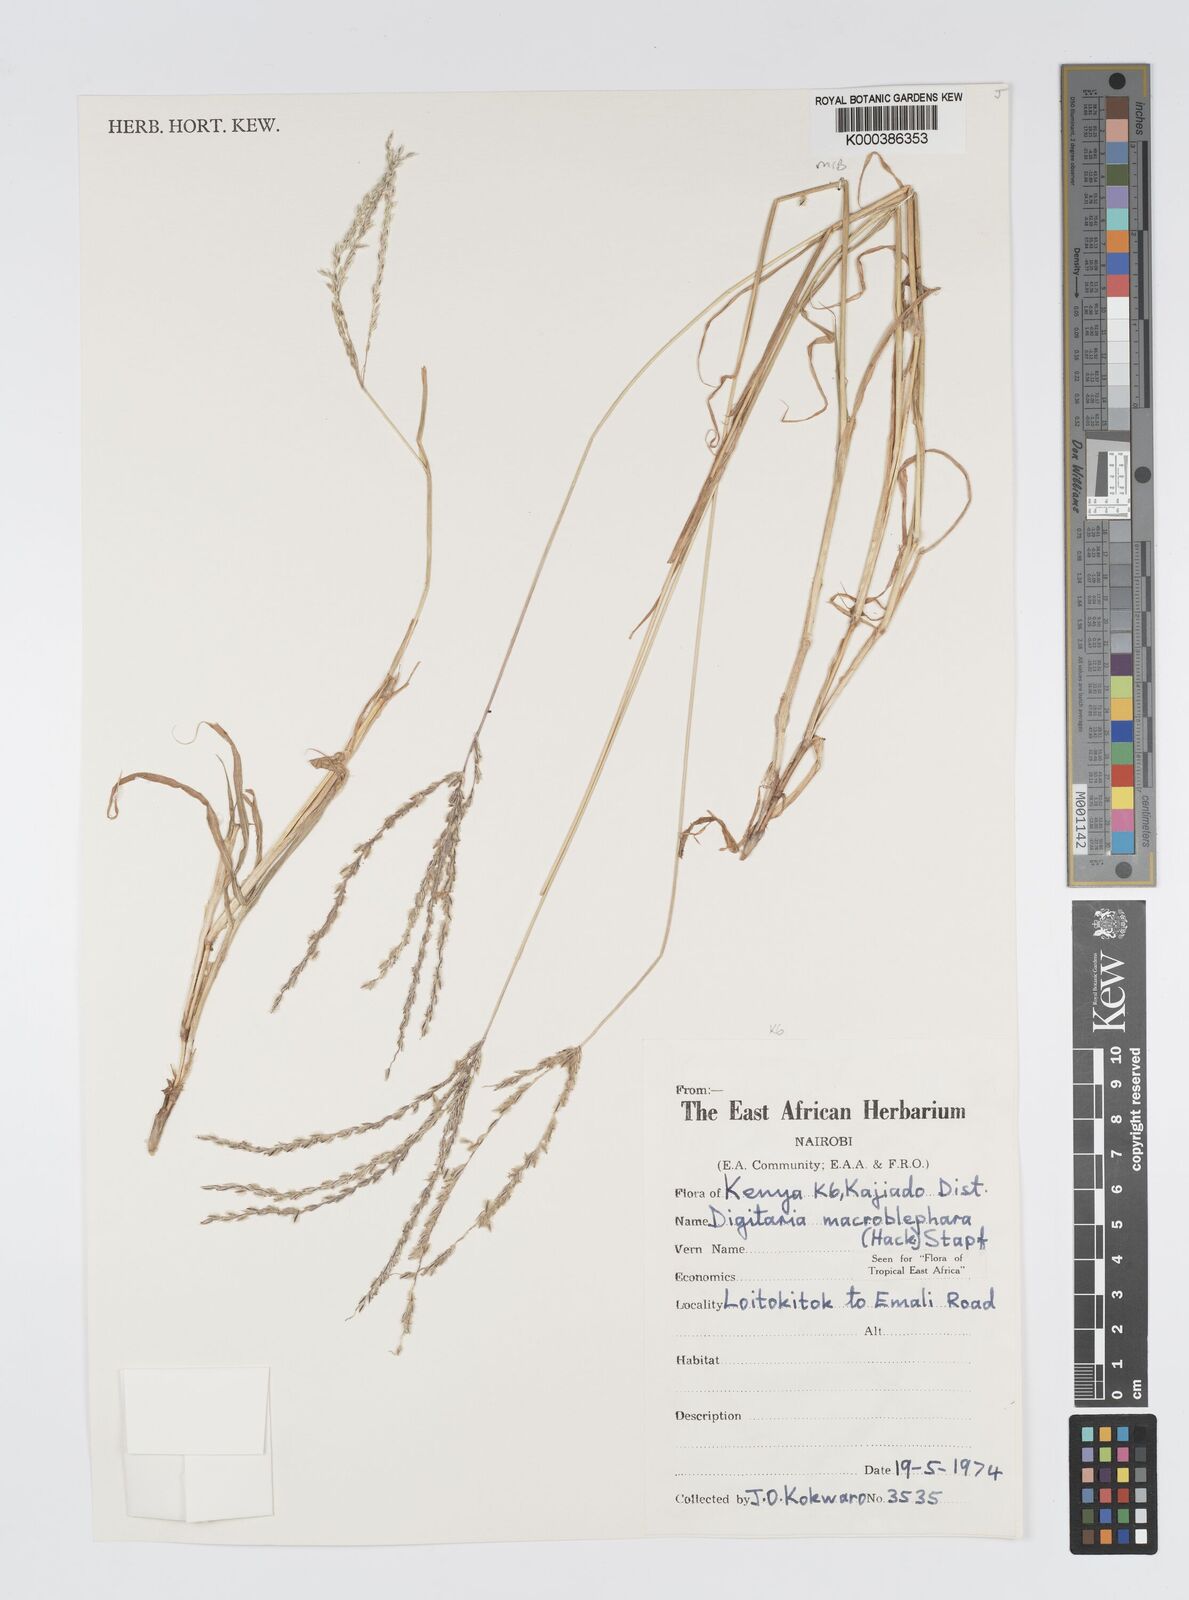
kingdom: Plantae
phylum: Tracheophyta
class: Liliopsida
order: Poales
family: Poaceae
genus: Digitaria
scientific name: Digitaria macroblephara
